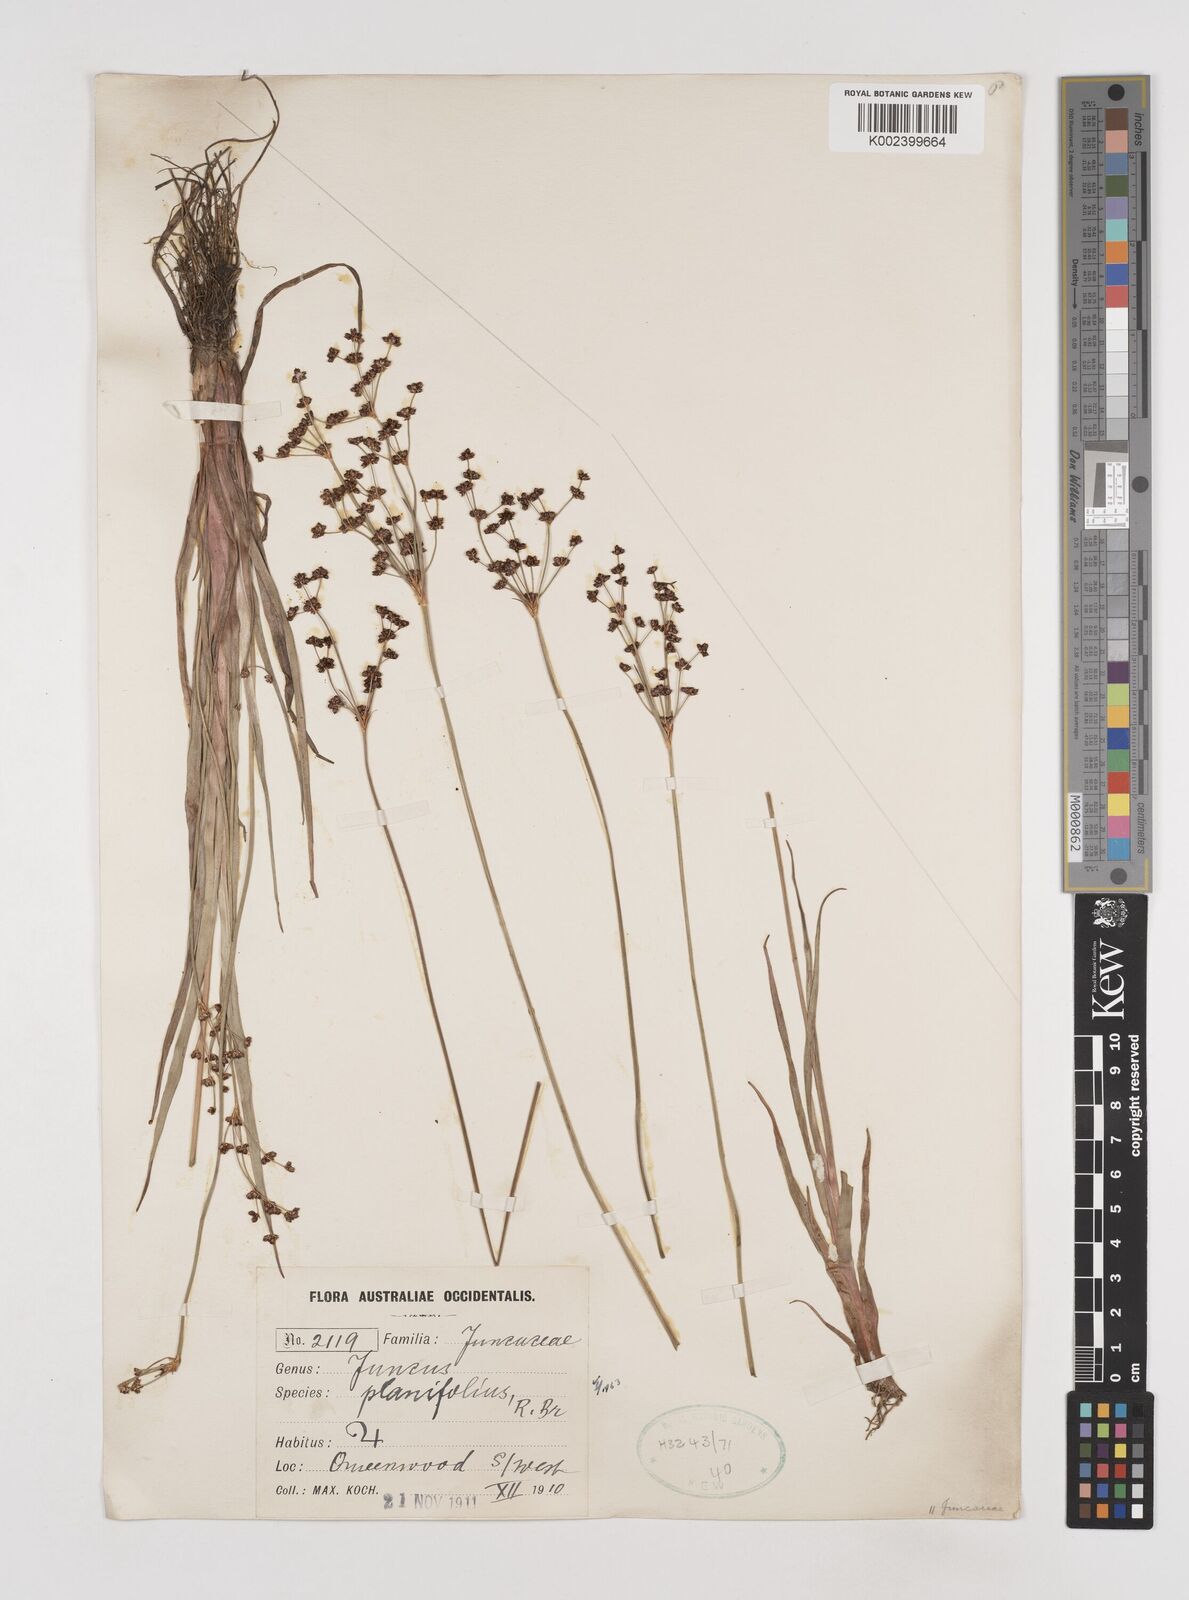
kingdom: Plantae
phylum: Tracheophyta
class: Liliopsida
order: Poales
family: Juncaceae
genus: Juncus
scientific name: Juncus planifolius
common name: Broadleaf rush
